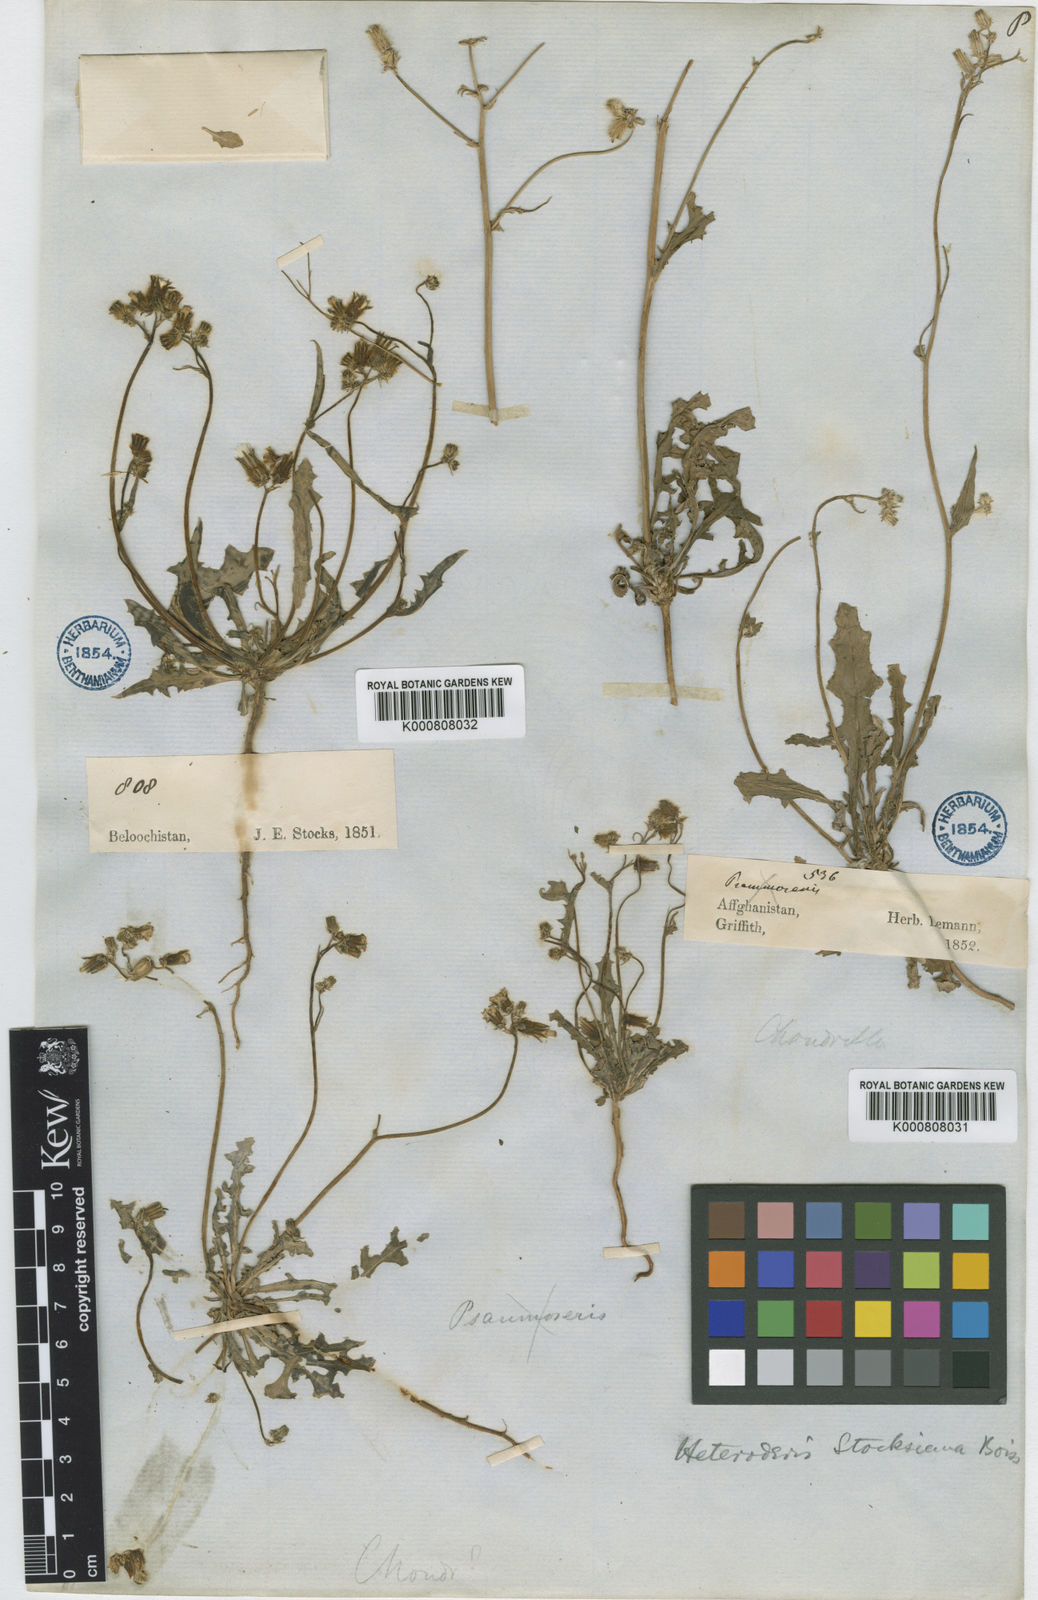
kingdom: Plantae
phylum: Tracheophyta
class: Magnoliopsida
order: Asterales
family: Asteraceae
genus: Heteroderis
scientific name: Heteroderis pusilla
